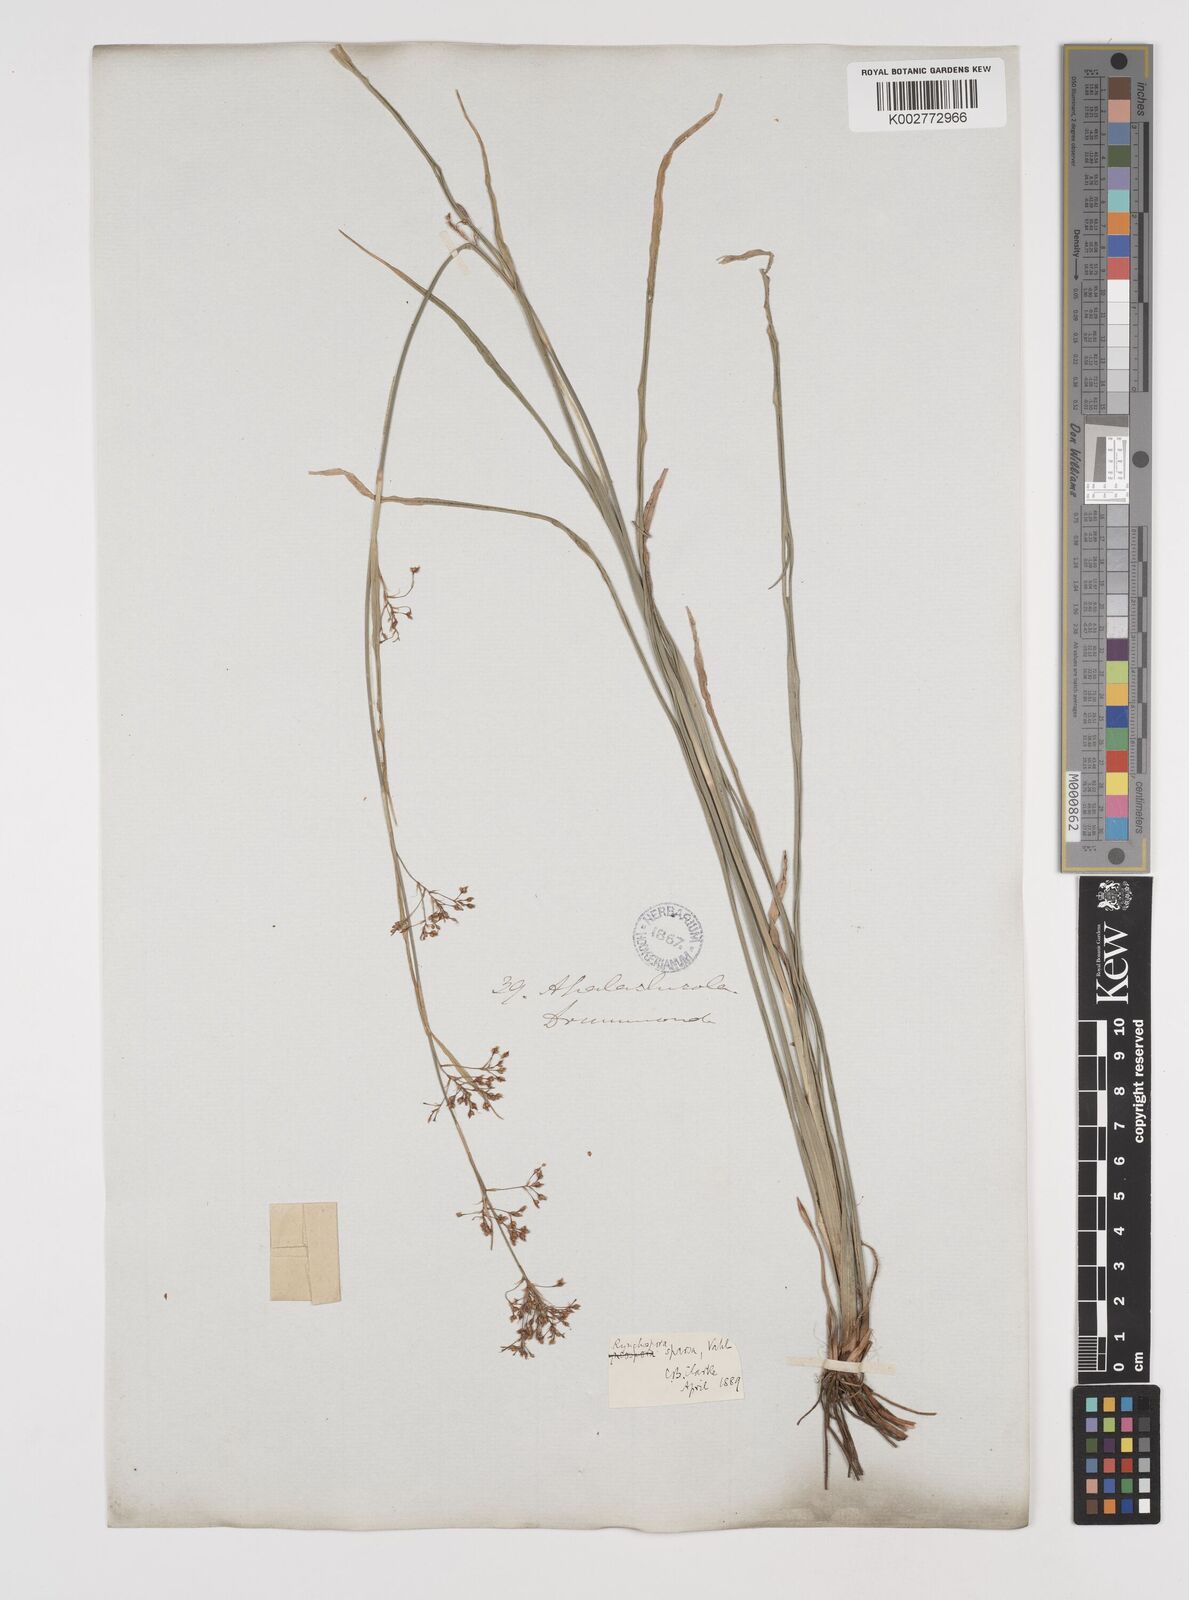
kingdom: Plantae
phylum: Tracheophyta
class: Liliopsida
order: Poales
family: Cyperaceae
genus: Rhynchospora
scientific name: Rhynchospora miliacea
